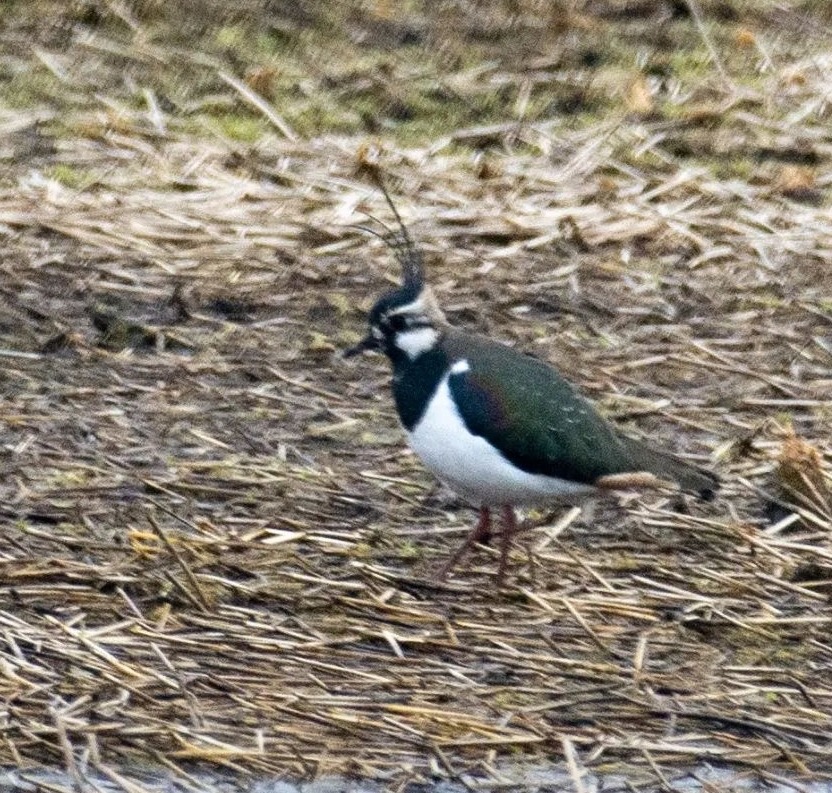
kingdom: Animalia
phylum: Chordata
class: Aves
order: Charadriiformes
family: Charadriidae
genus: Vanellus
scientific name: Vanellus vanellus
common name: Vibe
